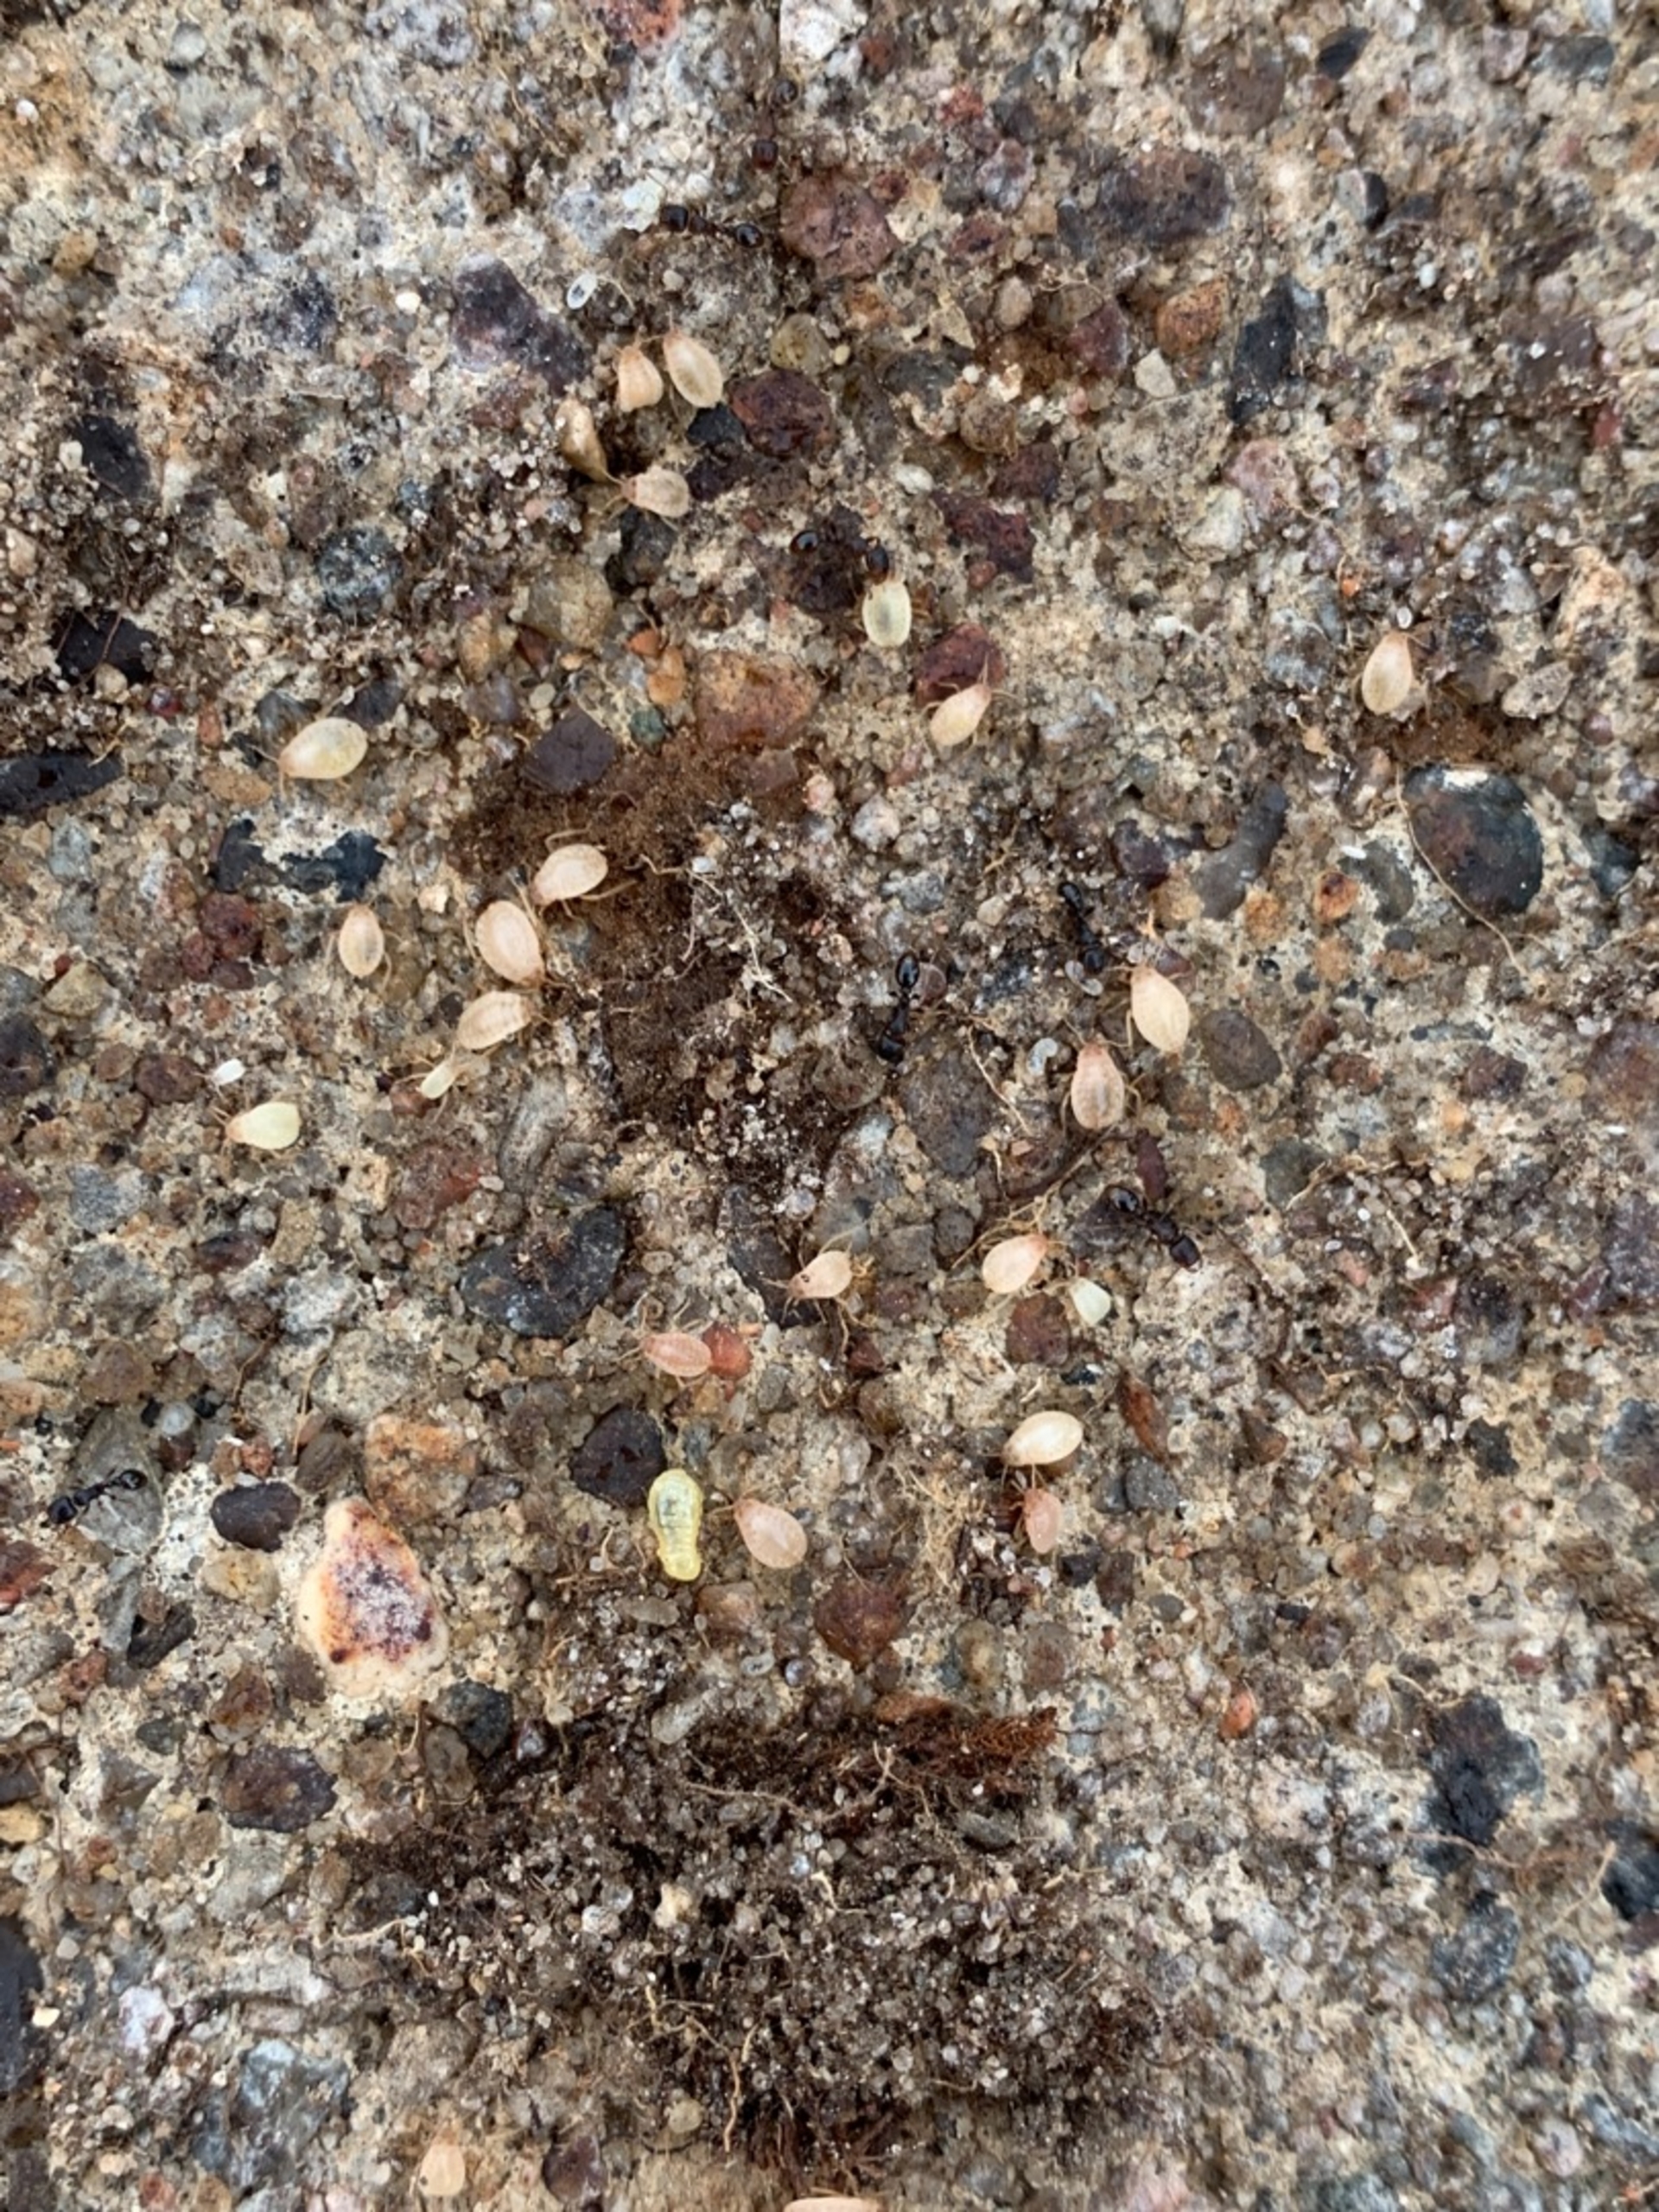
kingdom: Animalia
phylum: Arthropoda
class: Insecta
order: Hemiptera
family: Aphididae
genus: Paracletus
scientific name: Paracletus cimiciformis
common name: Vampyrrodlus
